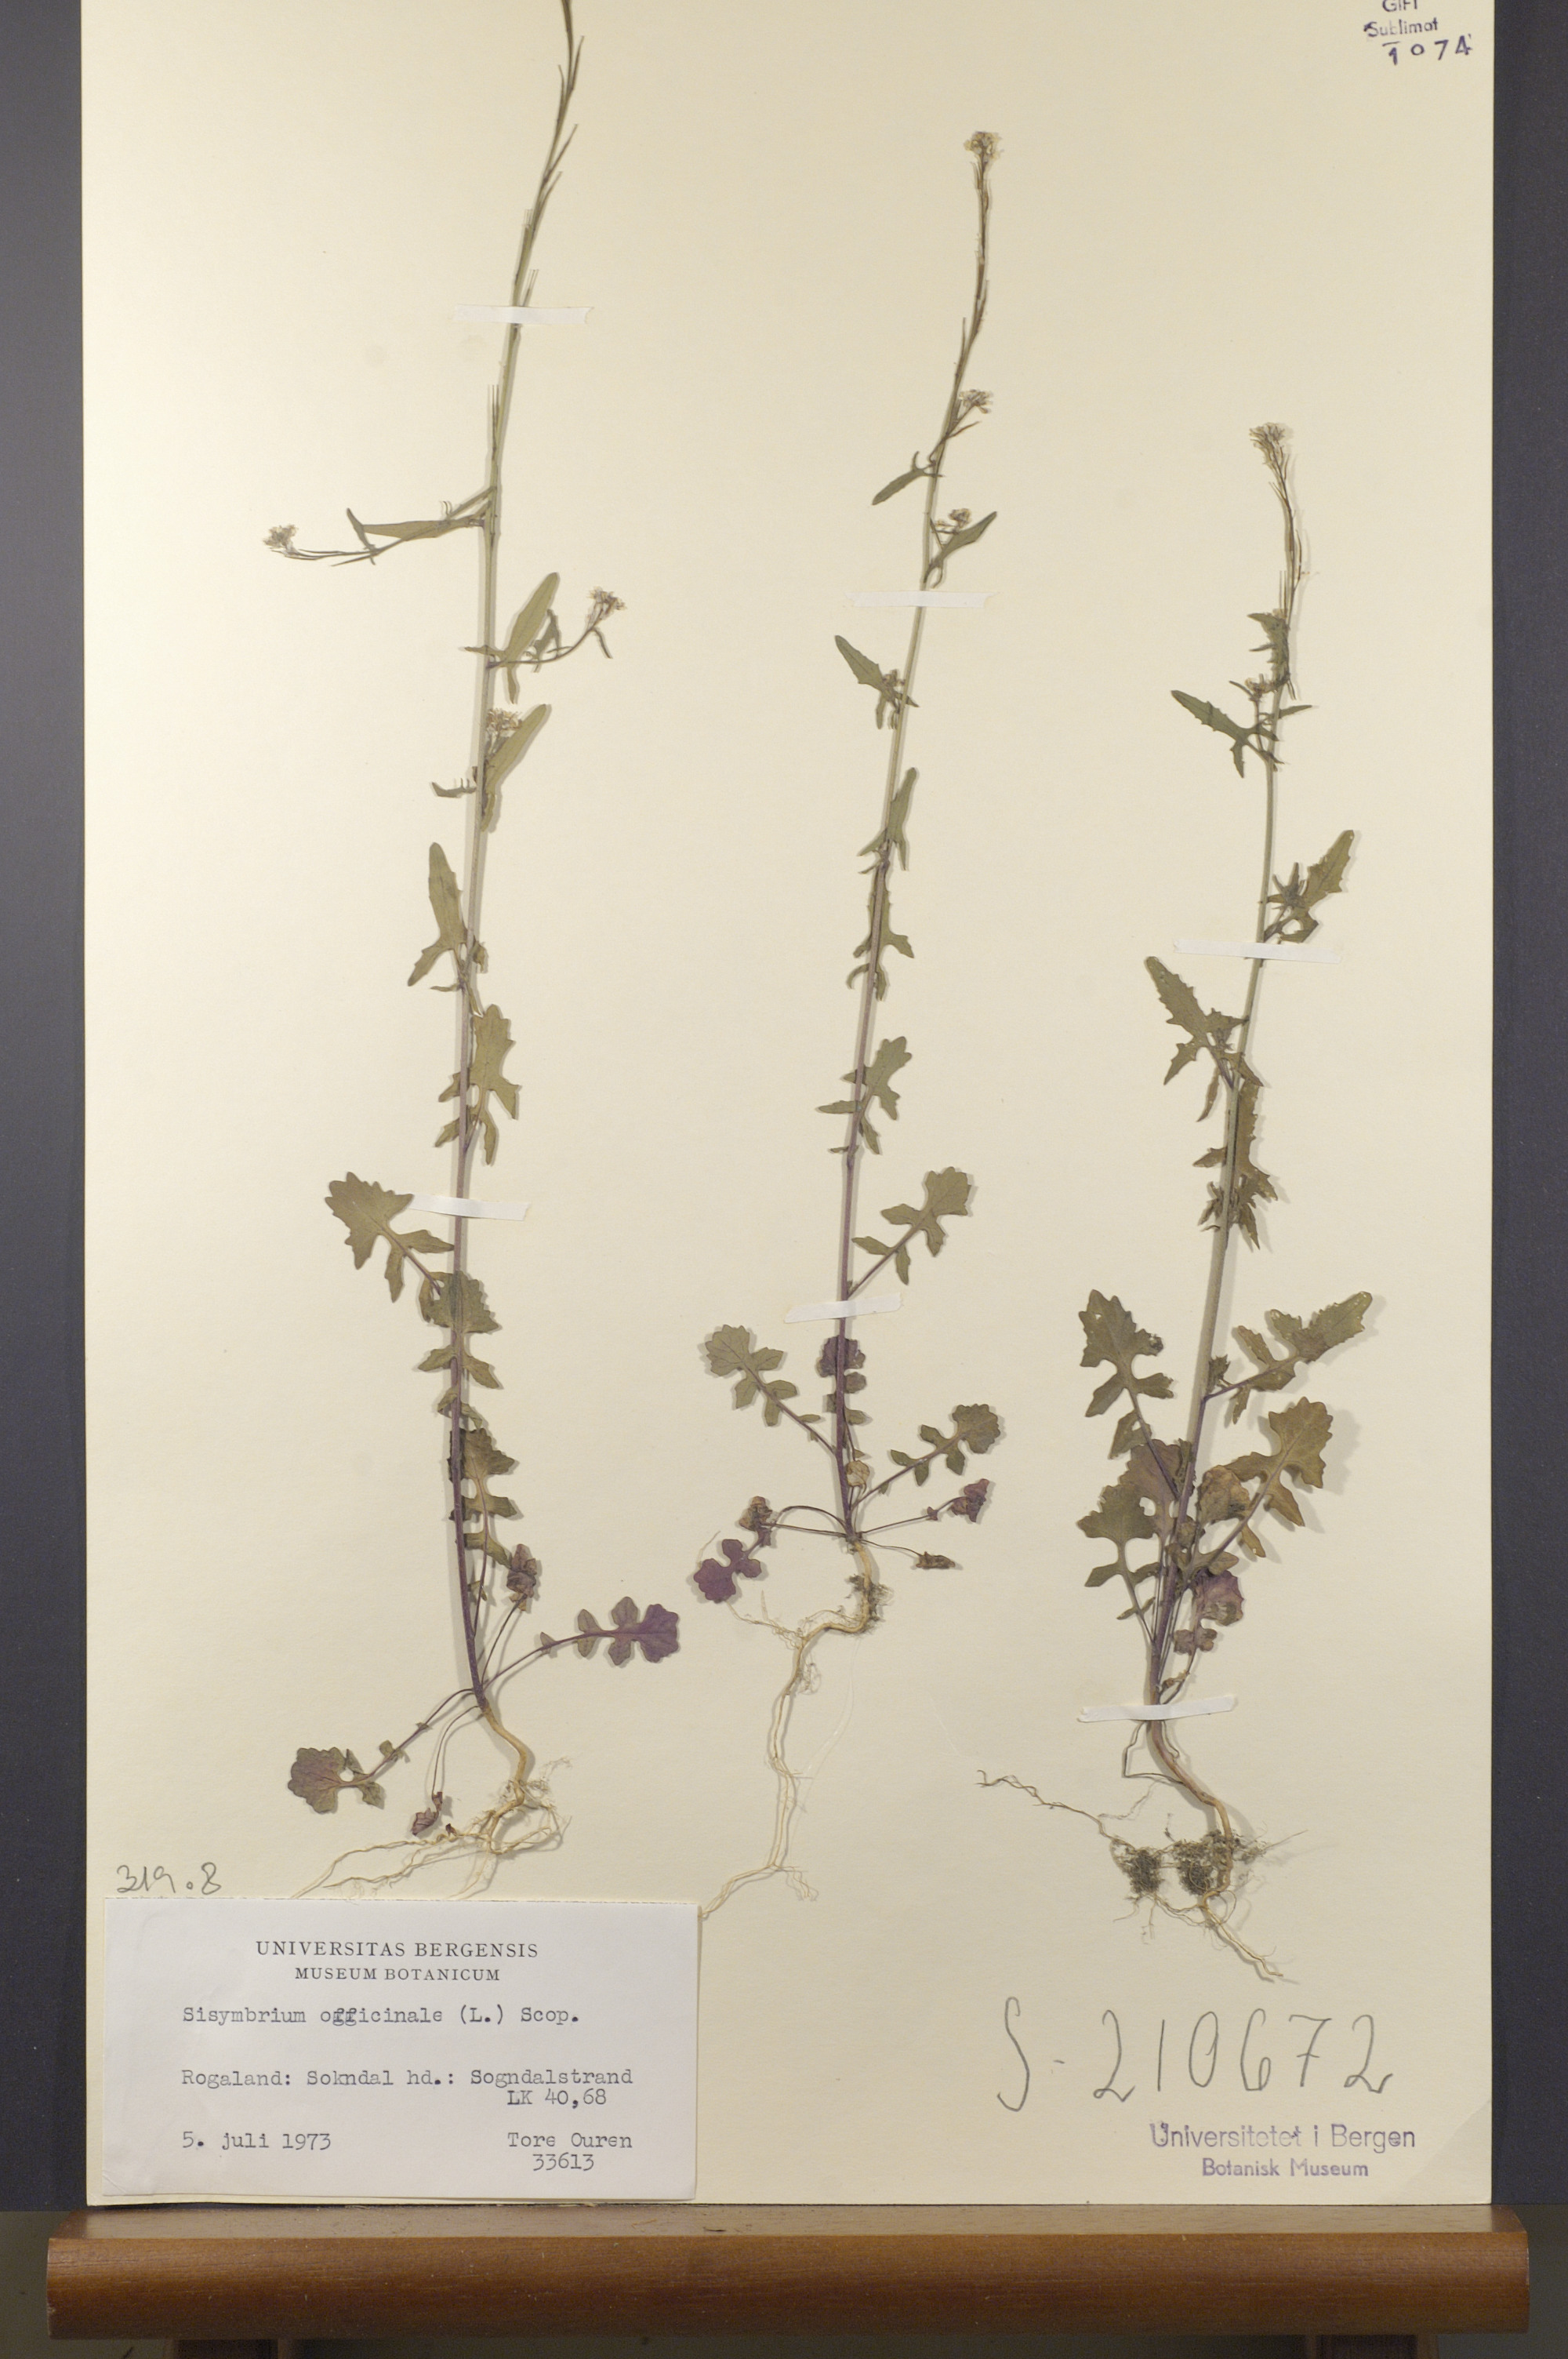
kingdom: Plantae
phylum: Tracheophyta
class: Magnoliopsida
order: Brassicales
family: Brassicaceae
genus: Sisymbrium
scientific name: Sisymbrium officinale
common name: Hedge mustard
